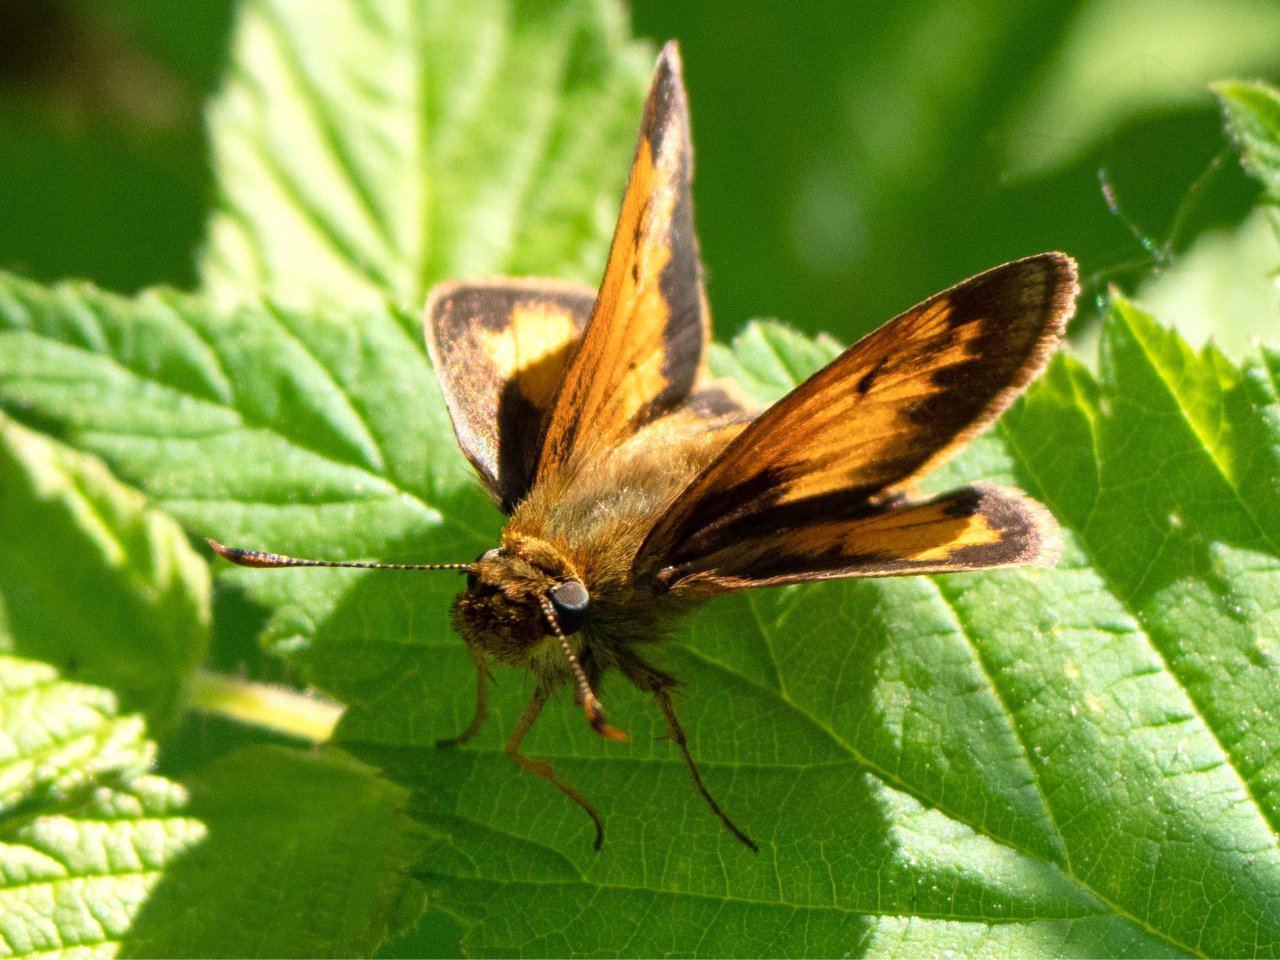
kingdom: Animalia
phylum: Arthropoda
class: Insecta
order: Lepidoptera
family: Hesperiidae
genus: Lon
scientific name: Lon hobomok
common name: Hobomok Skipper
